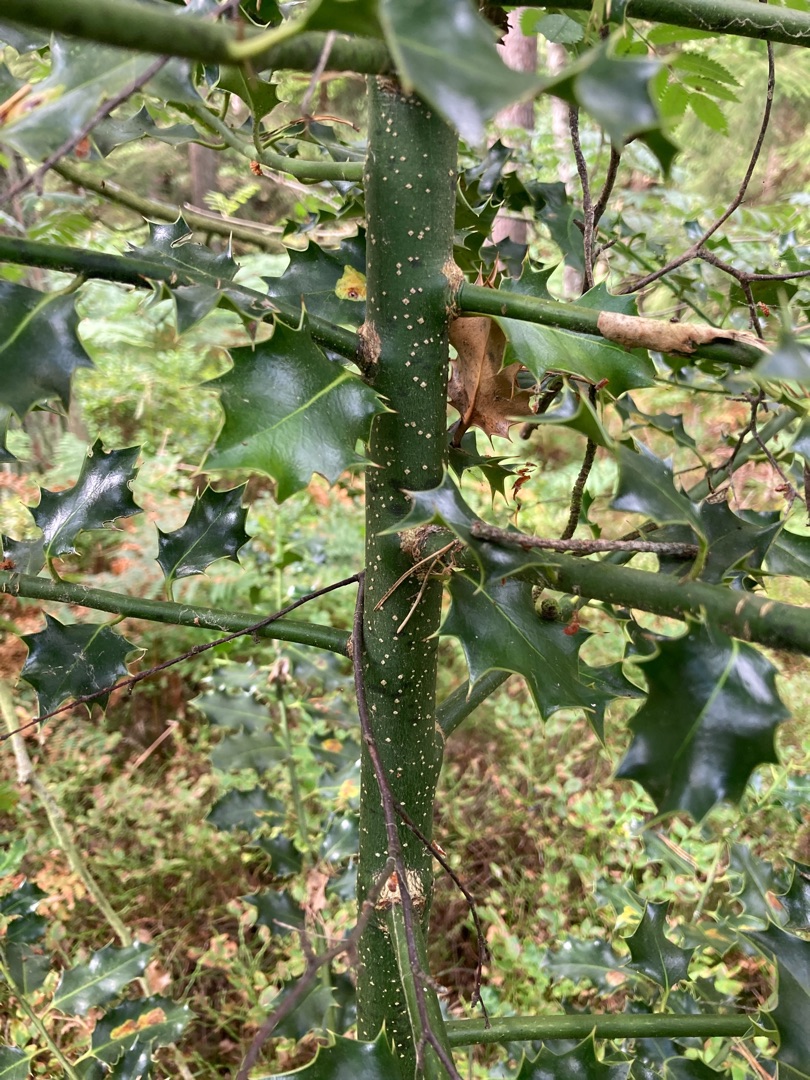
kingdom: Plantae
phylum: Tracheophyta
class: Magnoliopsida
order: Aquifoliales
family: Aquifoliaceae
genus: Ilex
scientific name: Ilex aquifolium
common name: Kristtorn
